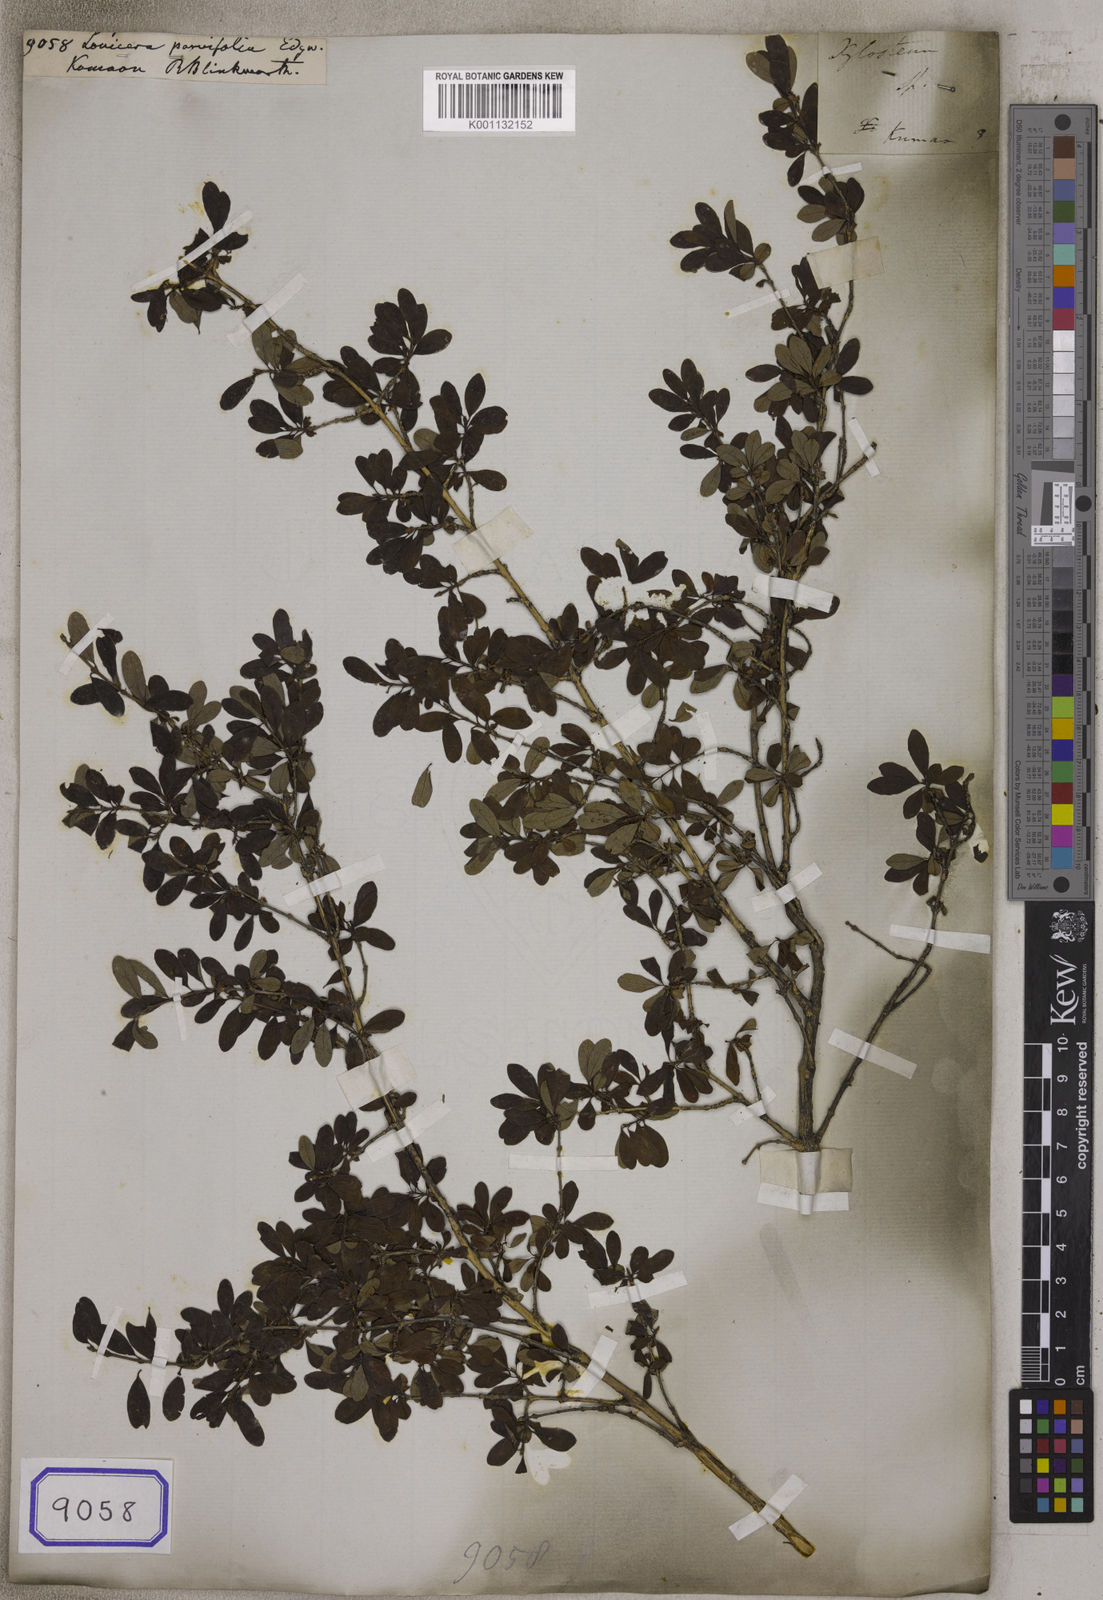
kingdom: Plantae
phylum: Tracheophyta
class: Magnoliopsida
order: Dipsacales
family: Caprifoliaceae
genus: Lonicera
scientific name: Lonicera obovata
